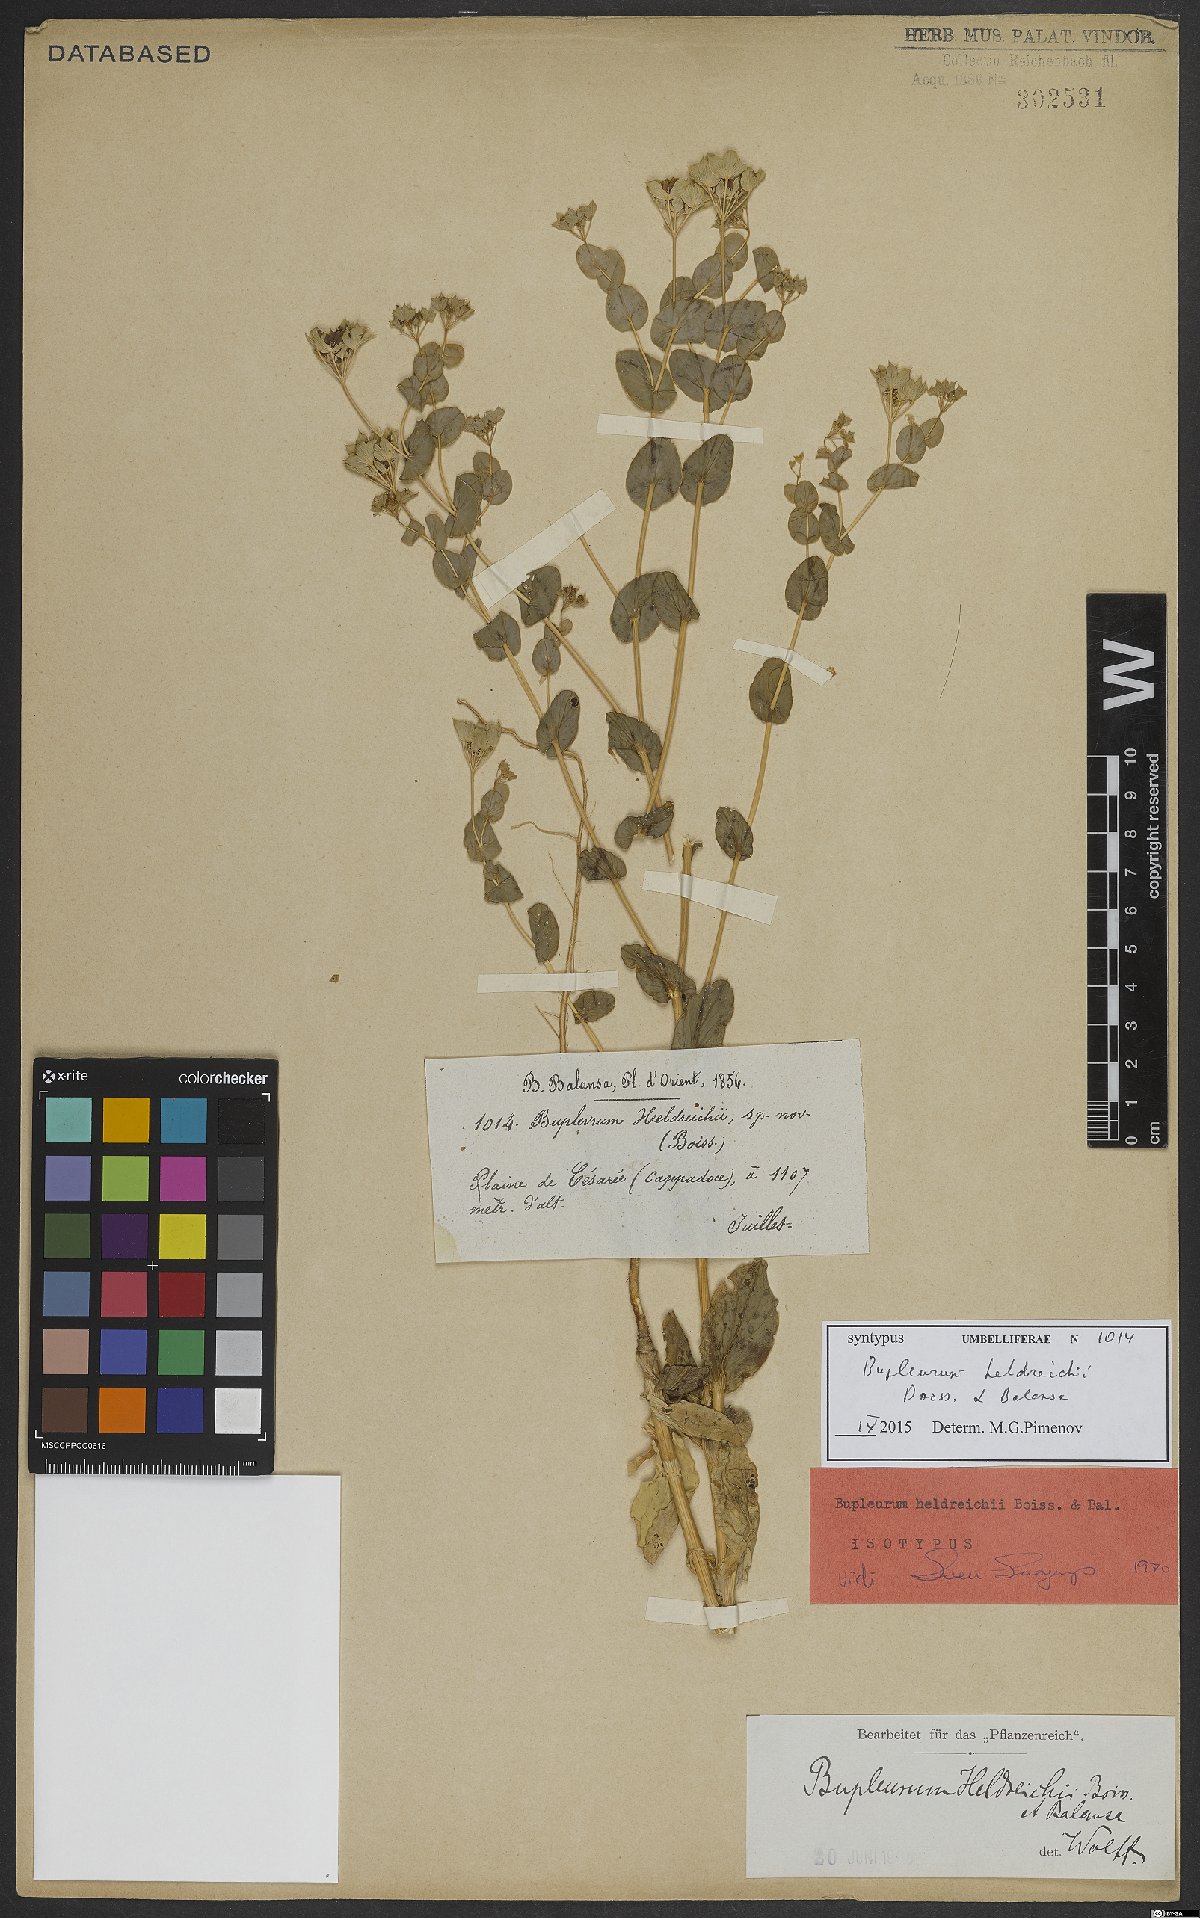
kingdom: Plantae
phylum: Tracheophyta
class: Magnoliopsida
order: Apiales
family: Apiaceae
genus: Bupleurum
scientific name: Bupleurum heldreichii
